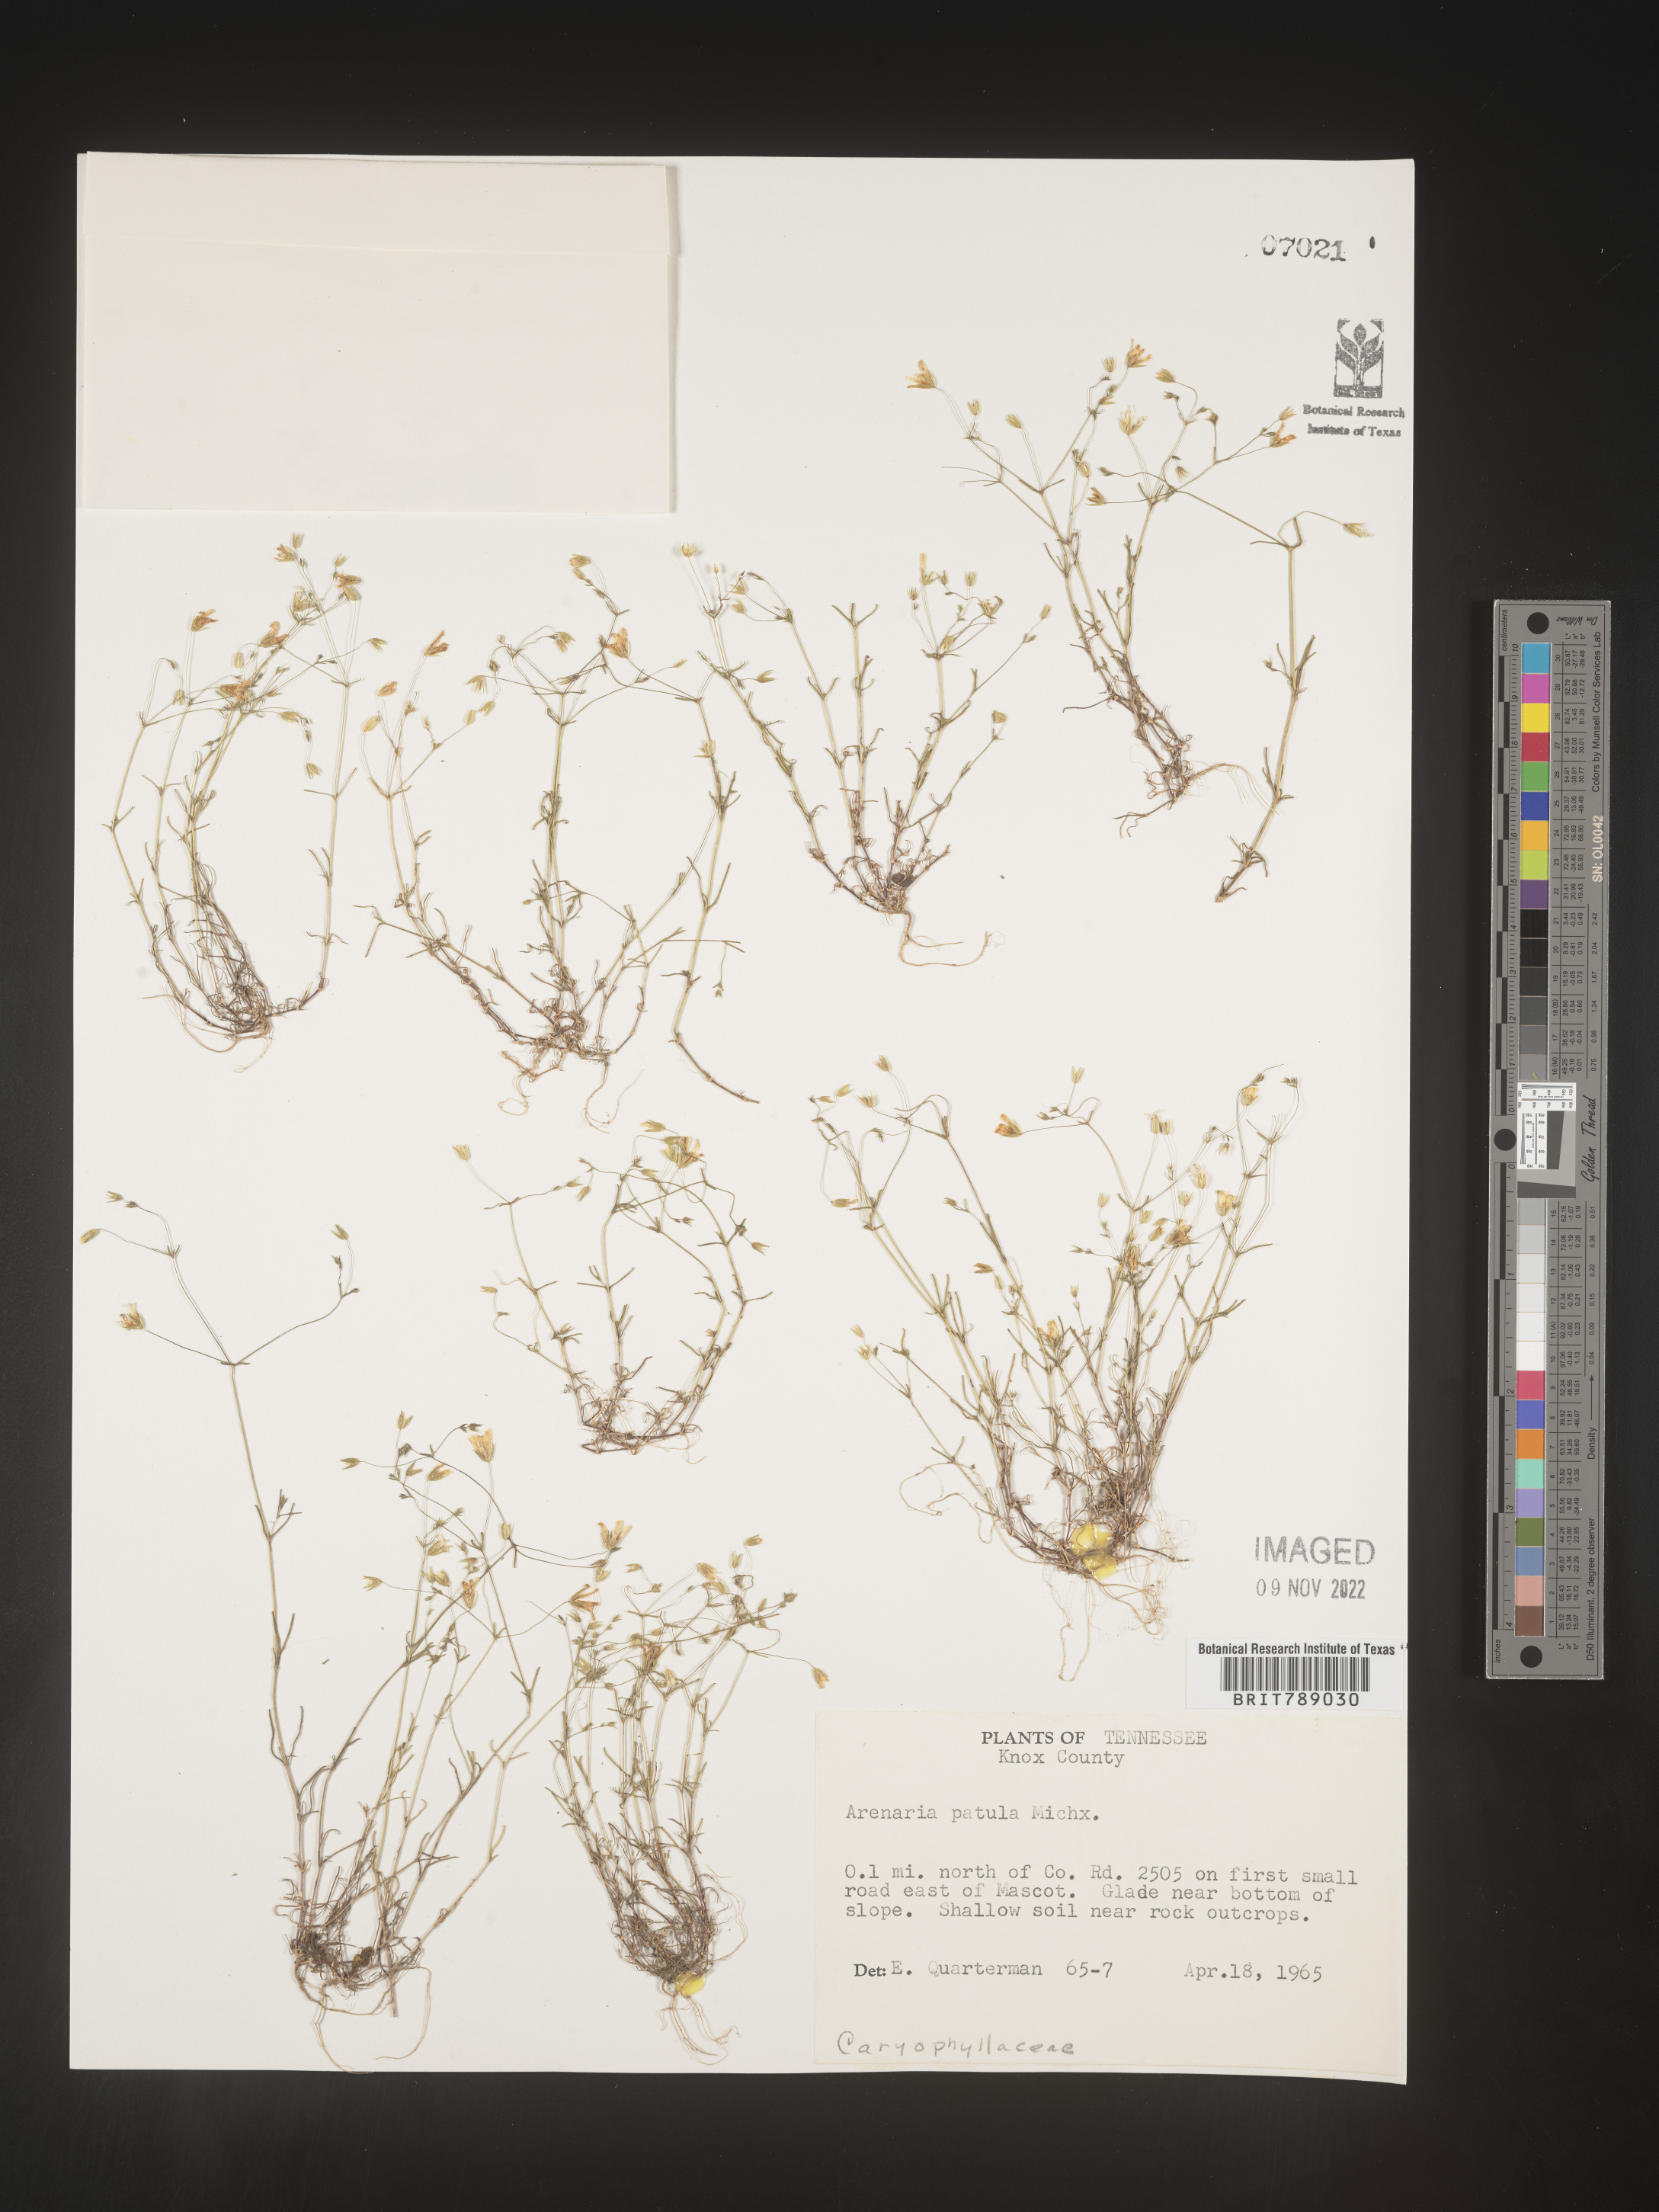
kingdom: Plantae
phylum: Tracheophyta
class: Magnoliopsida
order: Caryophyllales
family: Caryophyllaceae
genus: Mononeuria
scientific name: Mononeuria patula
